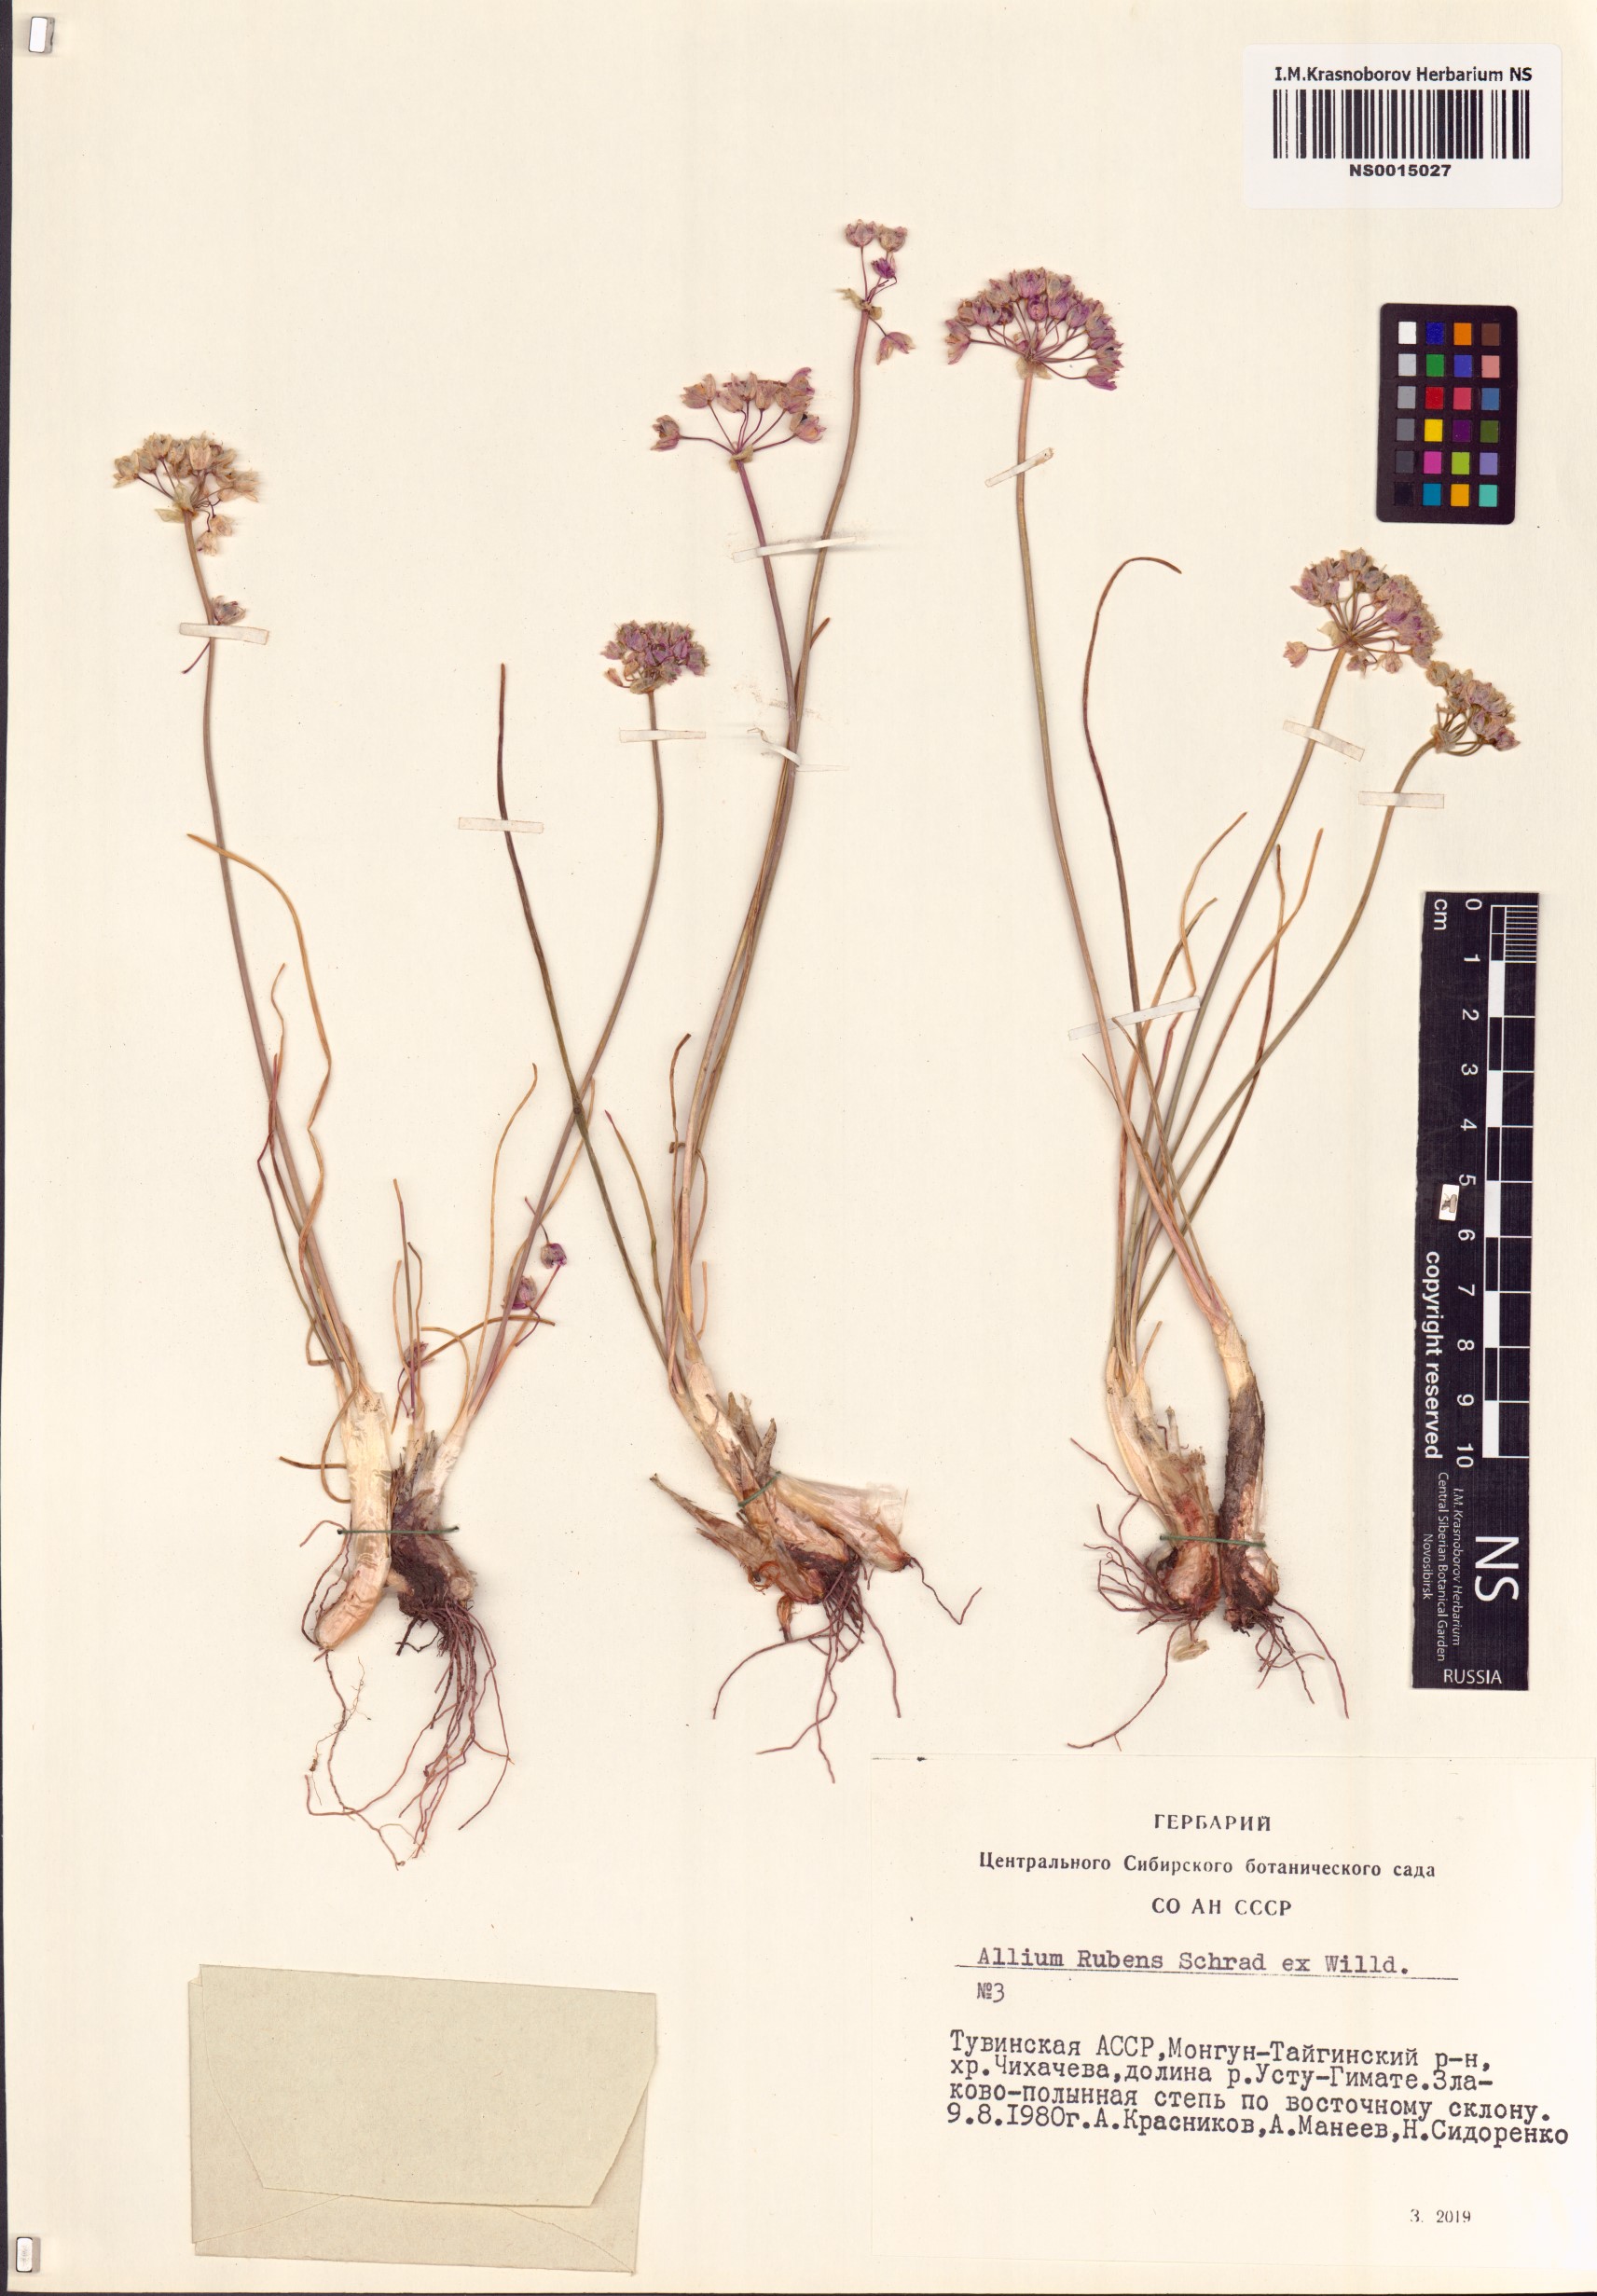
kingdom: Plantae
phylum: Tracheophyta
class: Liliopsida
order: Asparagales
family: Amaryllidaceae
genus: Allium
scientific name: Allium rubens
